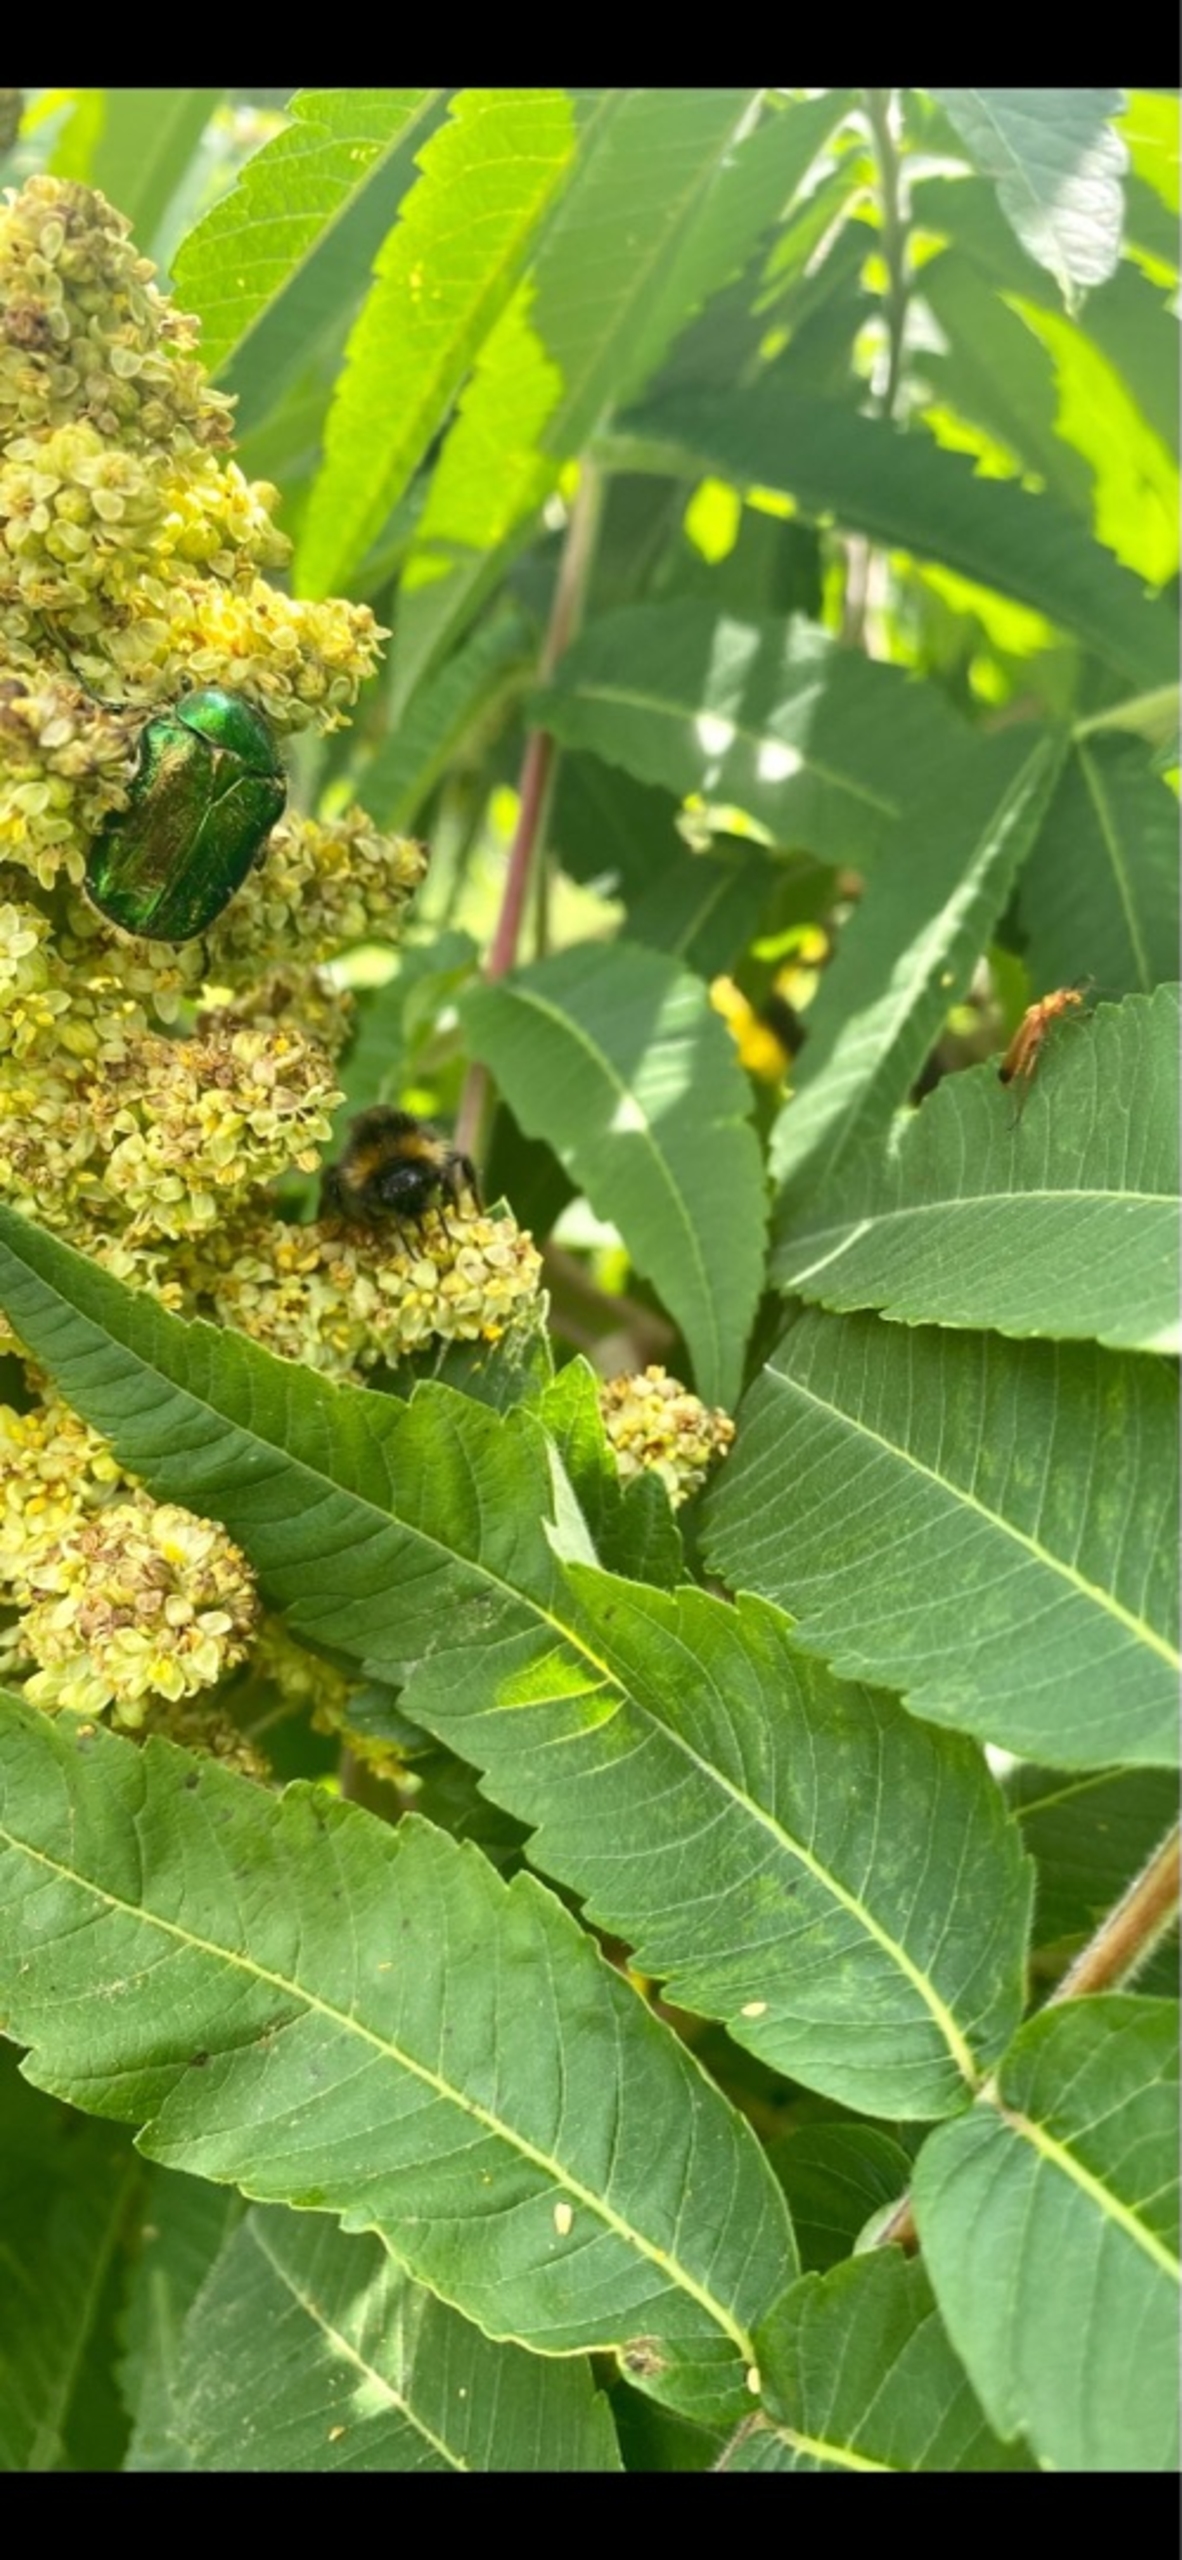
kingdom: Animalia
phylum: Arthropoda
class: Insecta
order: Coleoptera
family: Scarabaeidae
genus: Cetonia
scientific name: Cetonia aurata
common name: Grøn guldbasse
